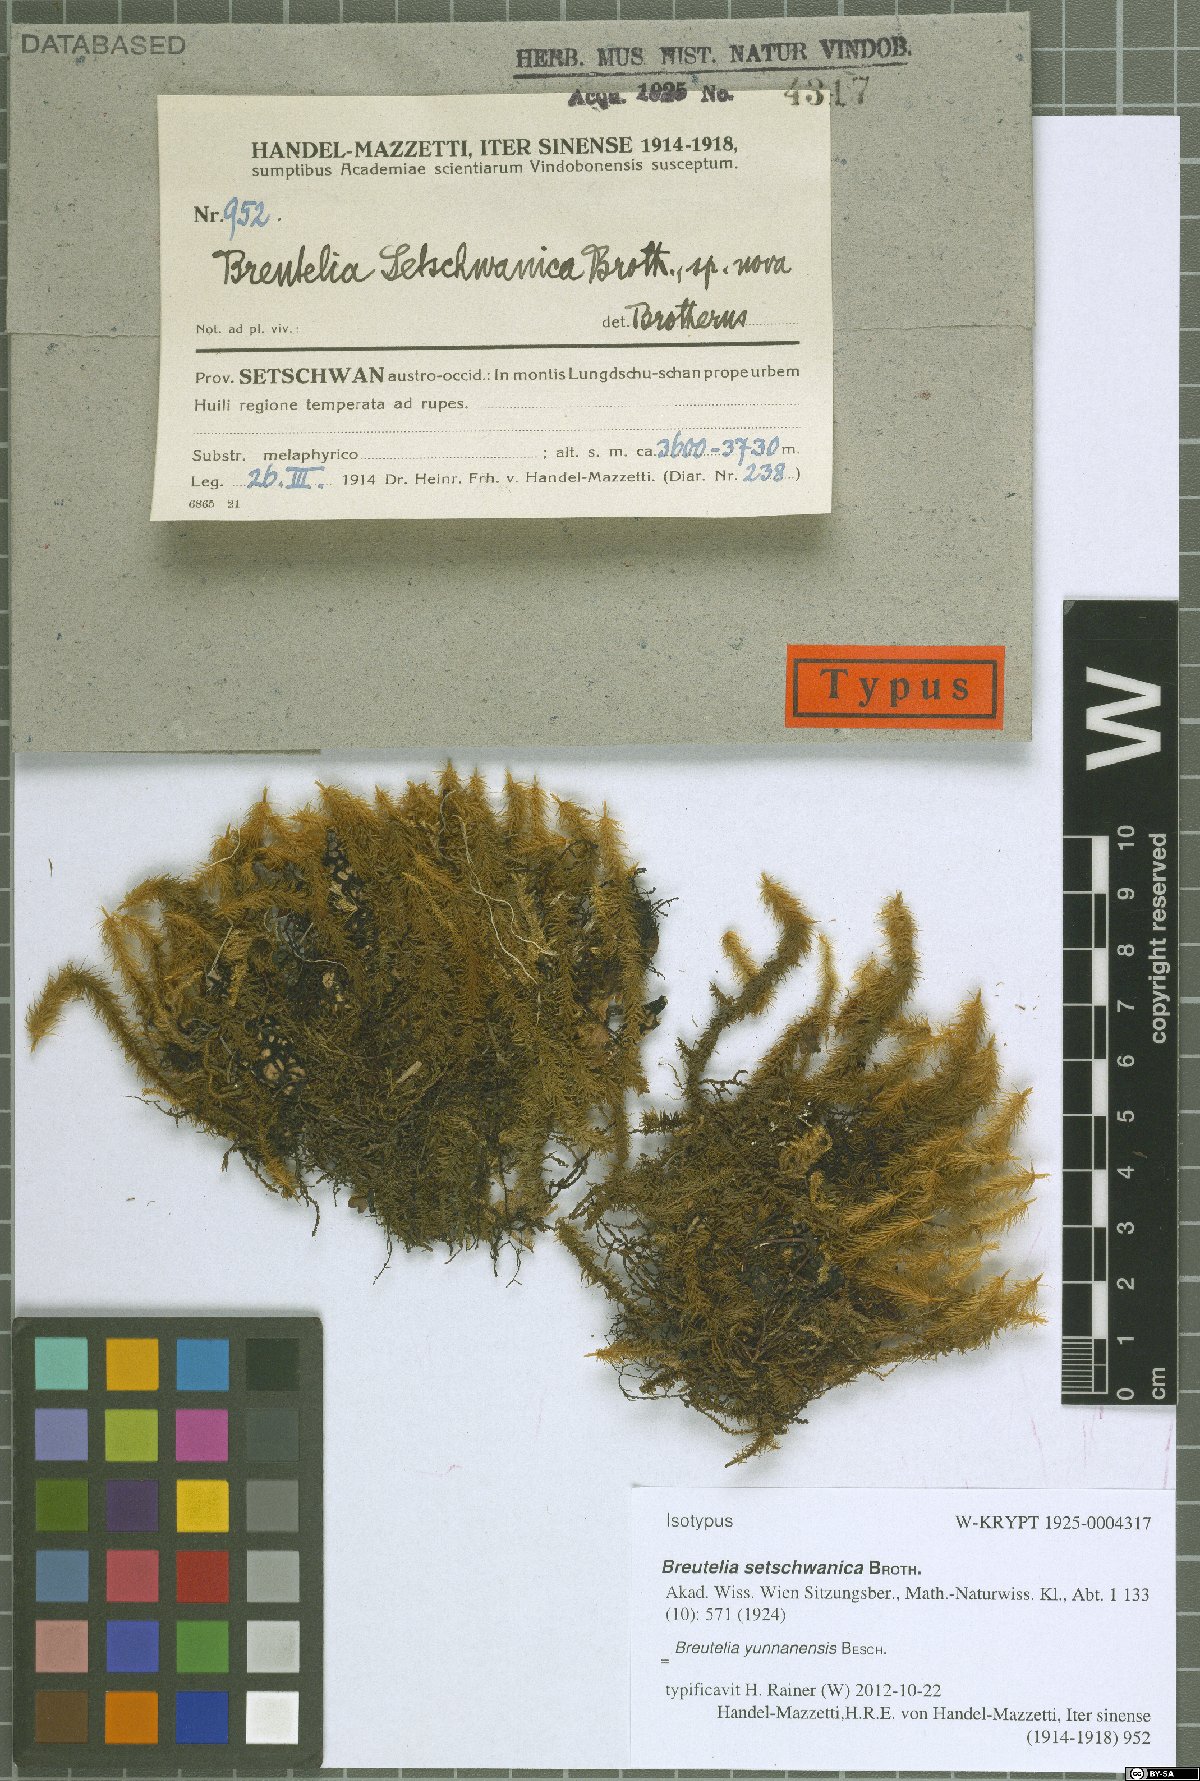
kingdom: Plantae
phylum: Bryophyta
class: Bryopsida
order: Bartramiales
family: Bartramiaceae
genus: Breutelia
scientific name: Breutelia yunnanensis
